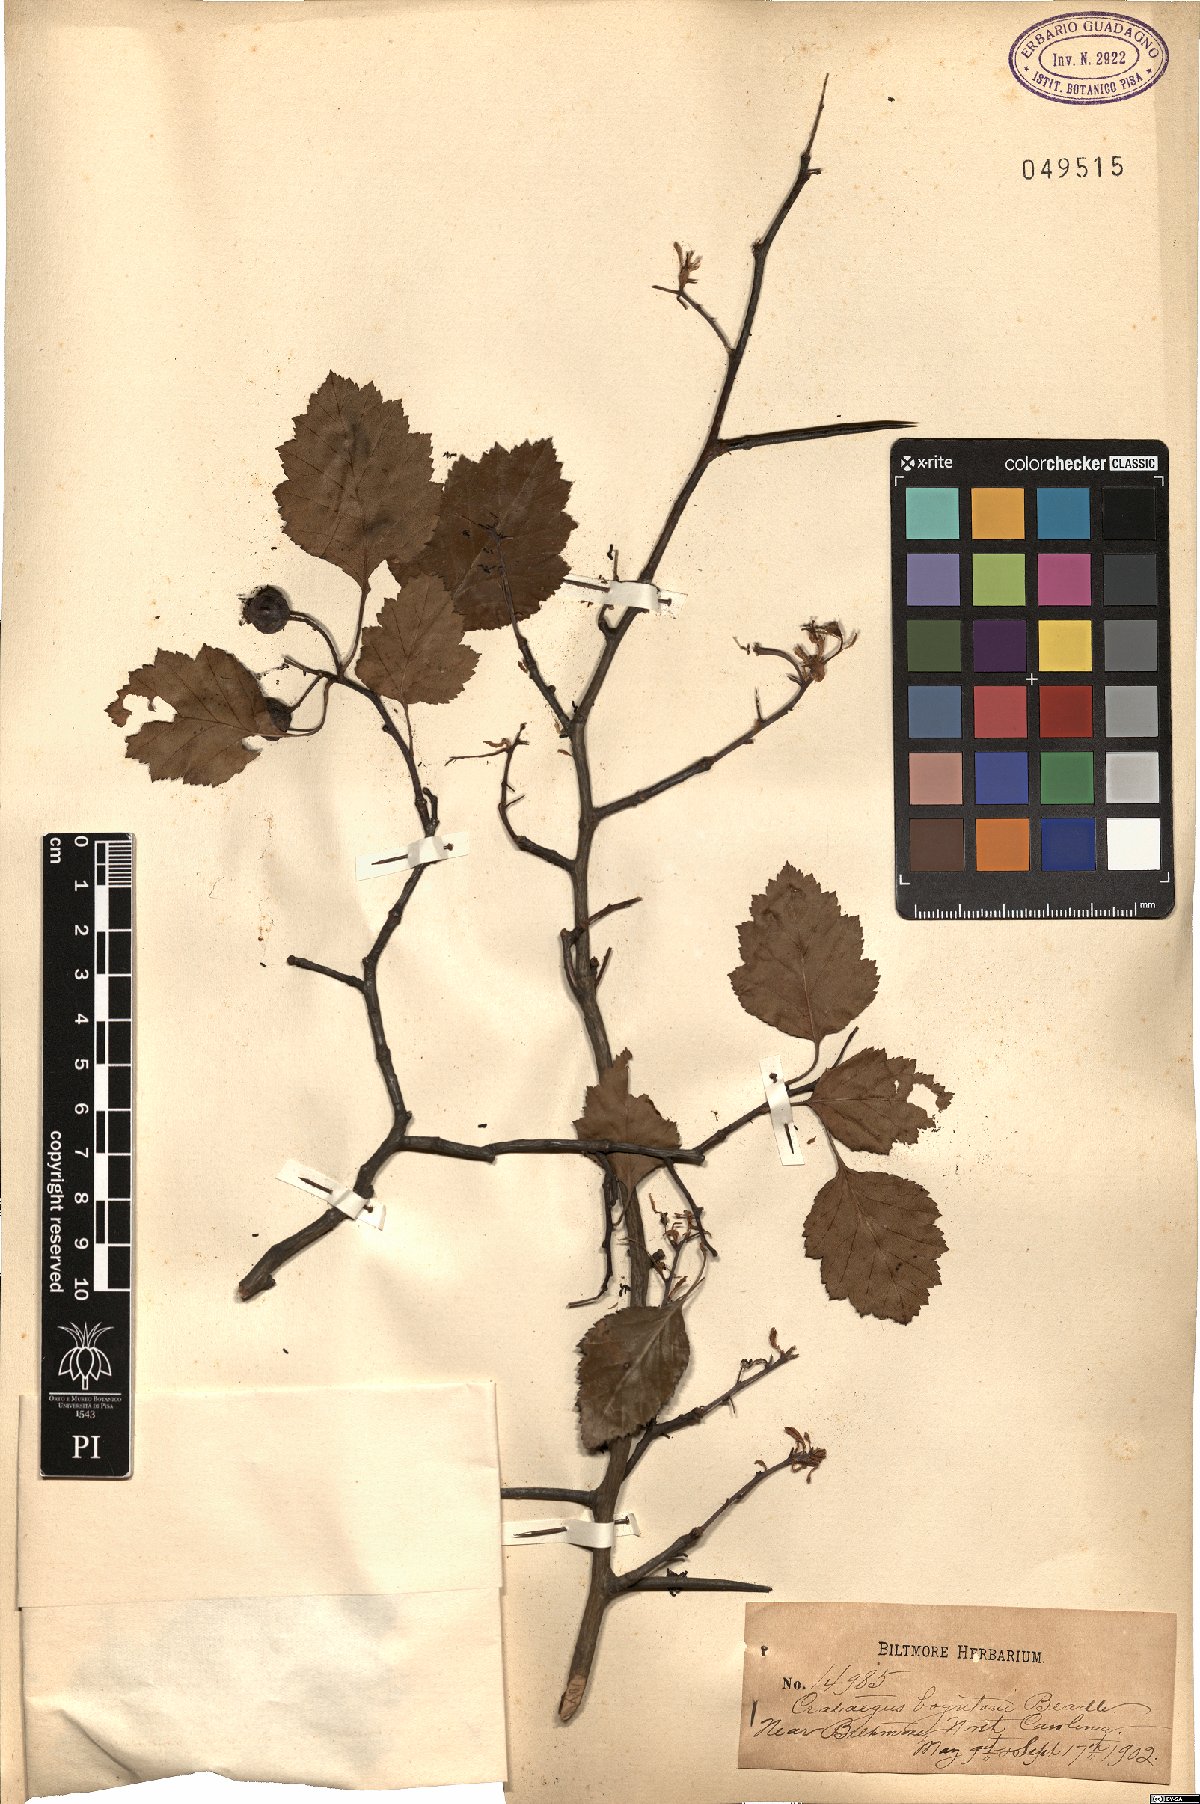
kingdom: Plantae
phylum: Tracheophyta
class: Magnoliopsida
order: Rosales
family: Rosaceae
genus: Crataegus
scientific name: Crataegus intricata
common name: Biltmore hawthorn
